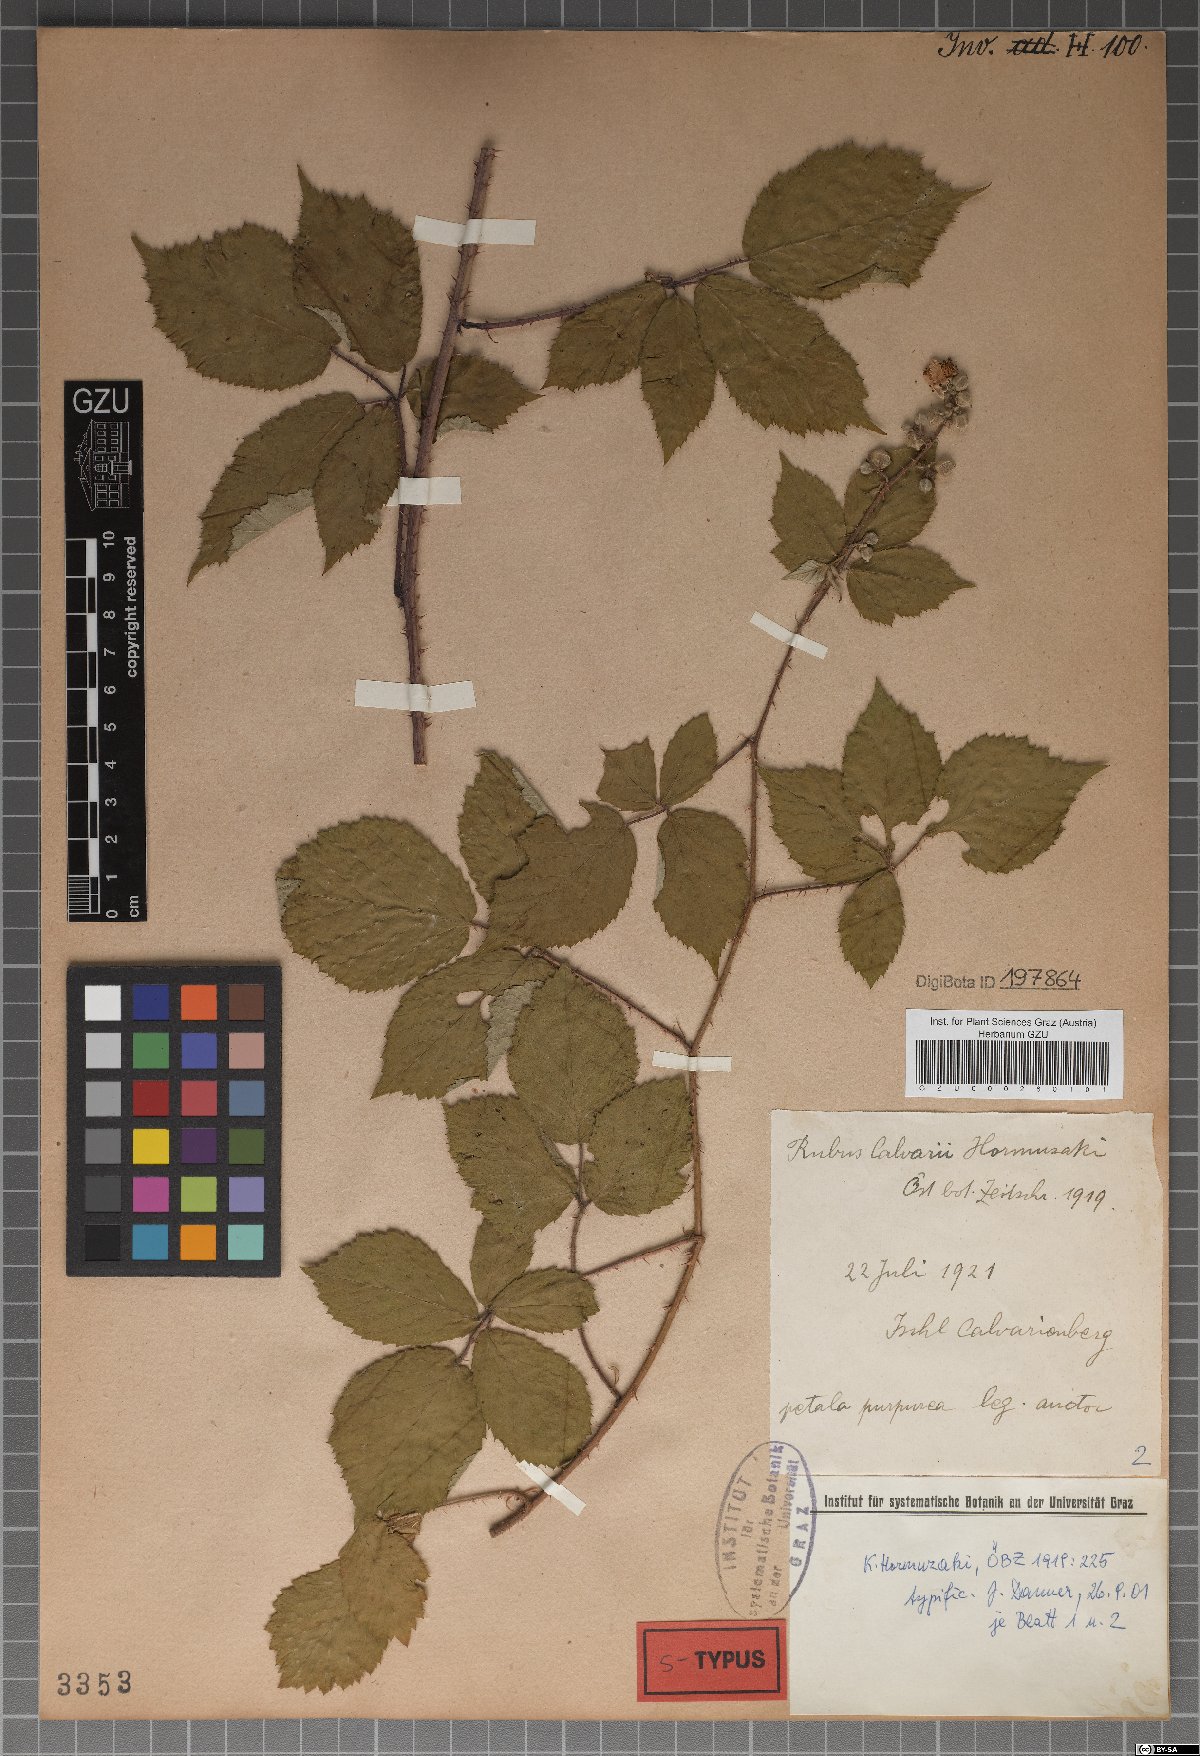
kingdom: Plantae
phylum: Tracheophyta
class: Magnoliopsida
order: Rosales
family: Rosaceae
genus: Rubus
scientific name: Rubus calvarii
